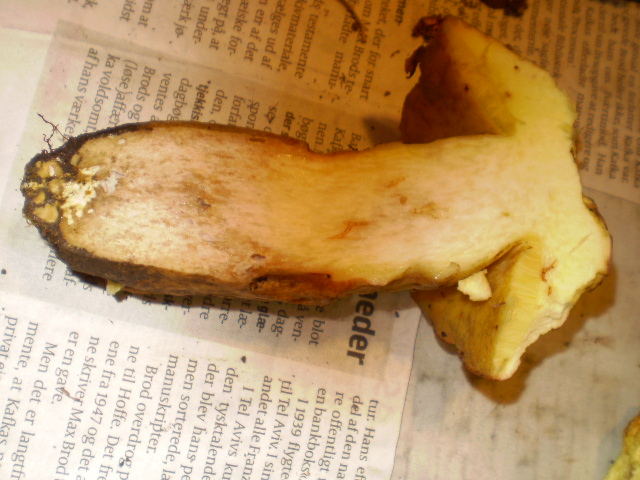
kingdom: Fungi
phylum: Basidiomycota
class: Agaricomycetes
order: Boletales
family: Boletaceae
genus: Butyriboletus
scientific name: Butyriboletus appendiculatus
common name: tenstokket rørhat
